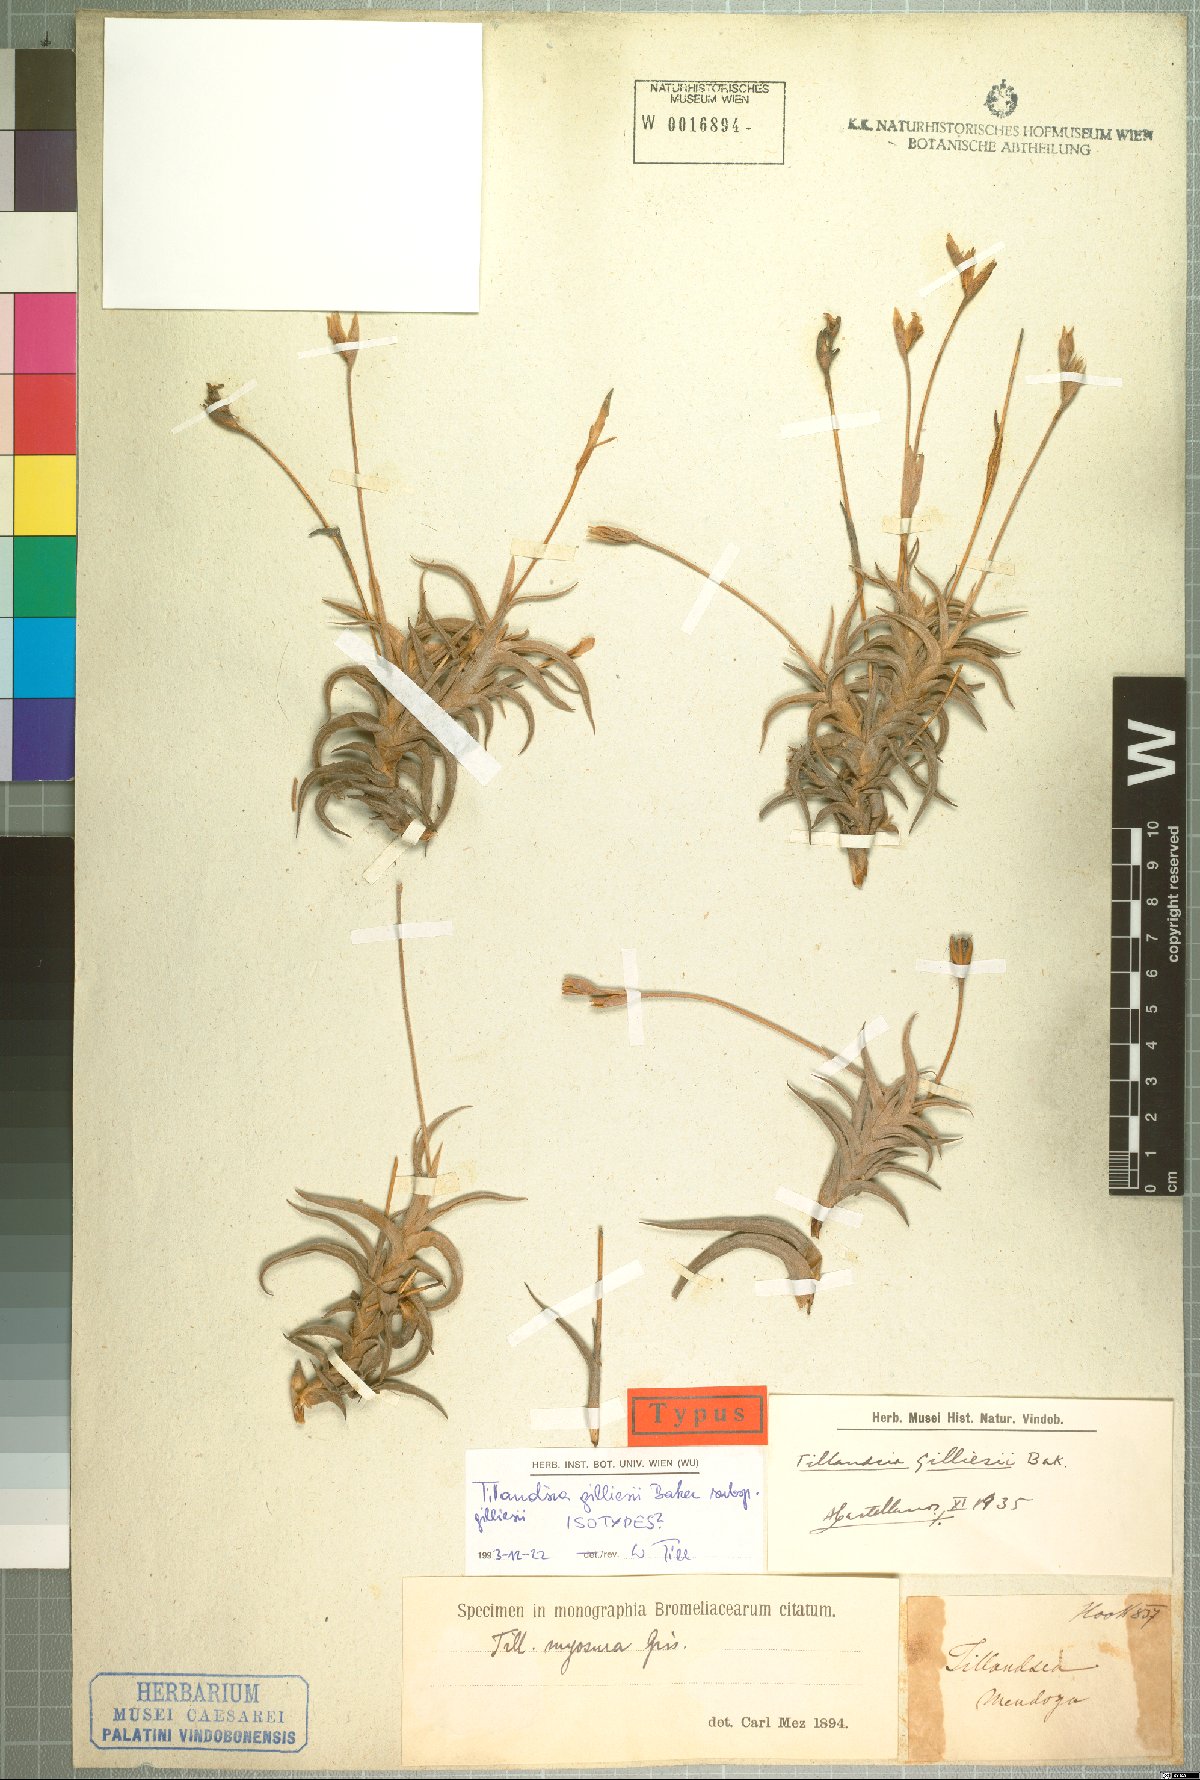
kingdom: Plantae
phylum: Tracheophyta
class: Liliopsida
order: Poales
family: Bromeliaceae
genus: Tillandsia
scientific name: Tillandsia gilliesii
